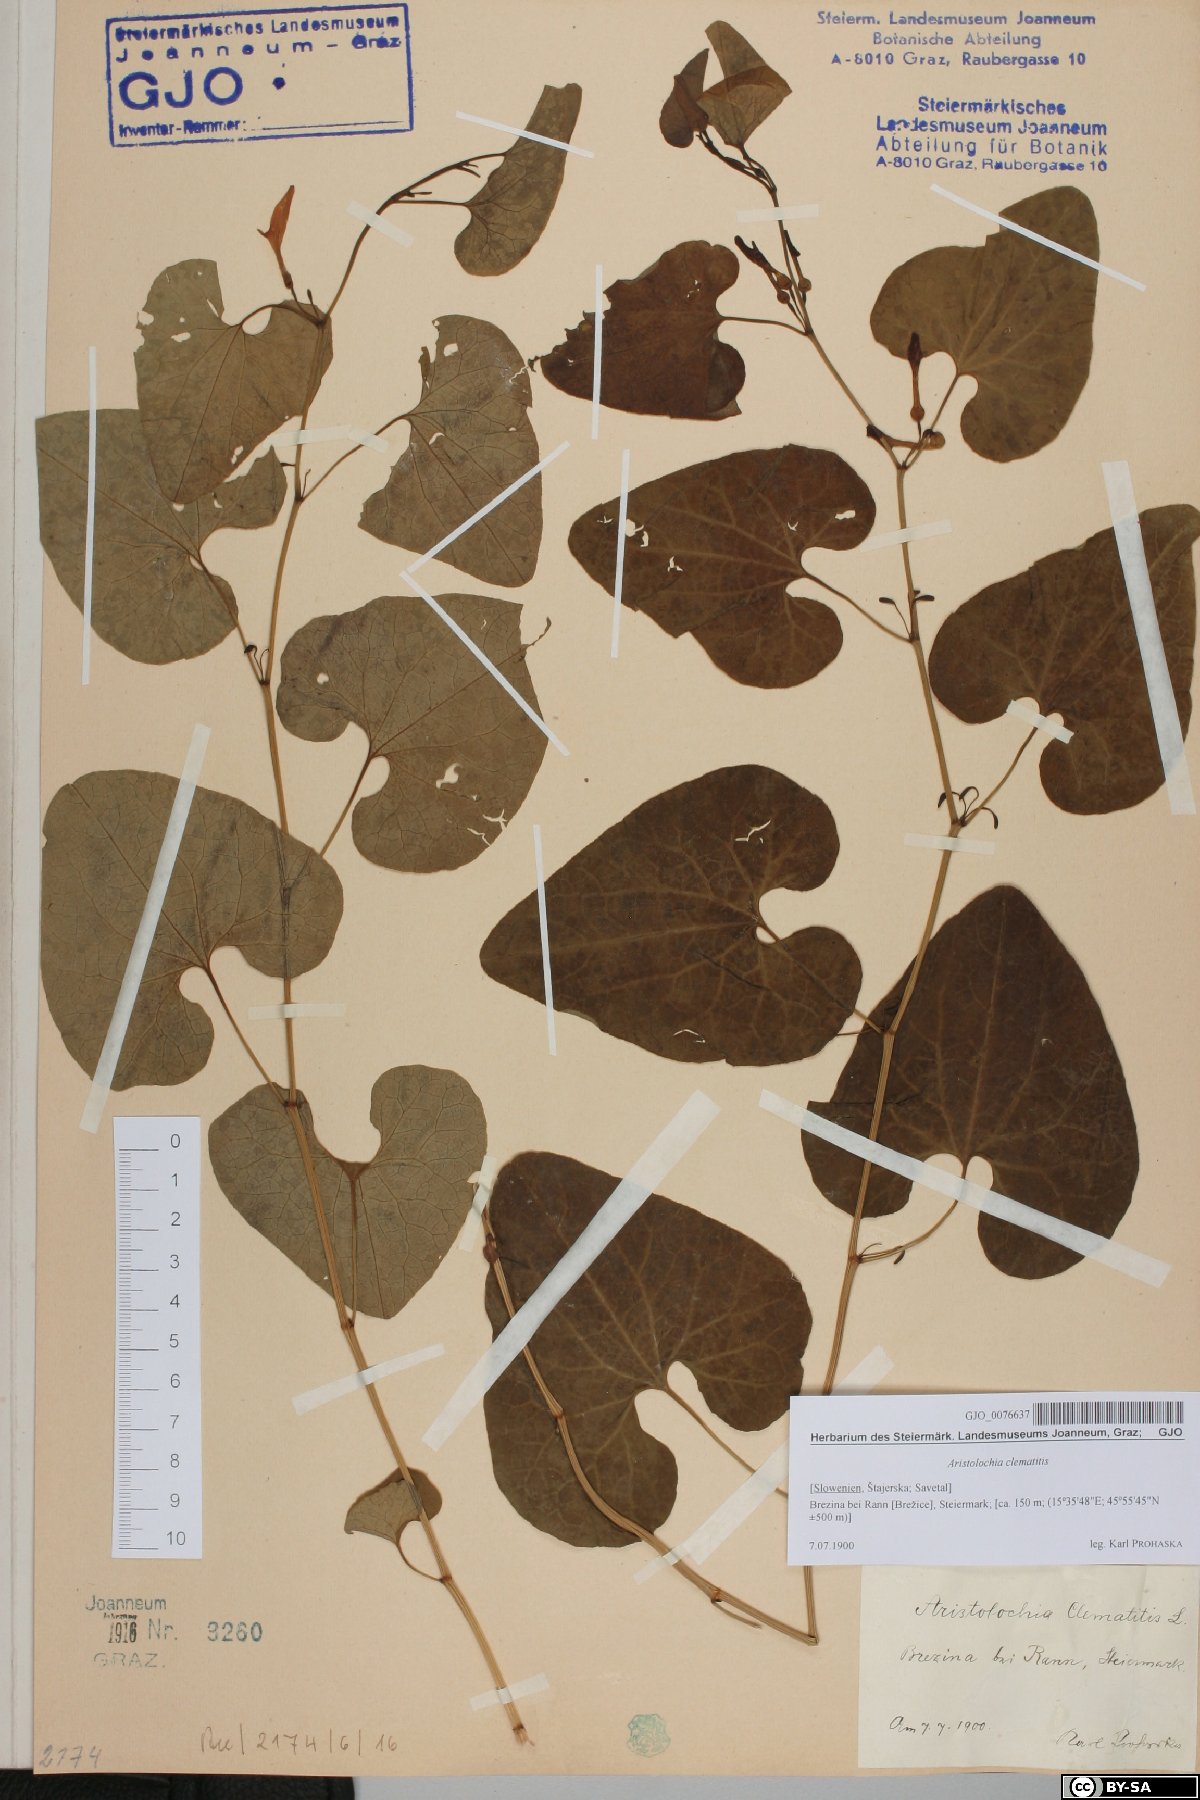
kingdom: Plantae
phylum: Tracheophyta
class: Magnoliopsida
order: Piperales
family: Aristolochiaceae
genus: Aristolochia
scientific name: Aristolochia clematitis
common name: Birthwort
